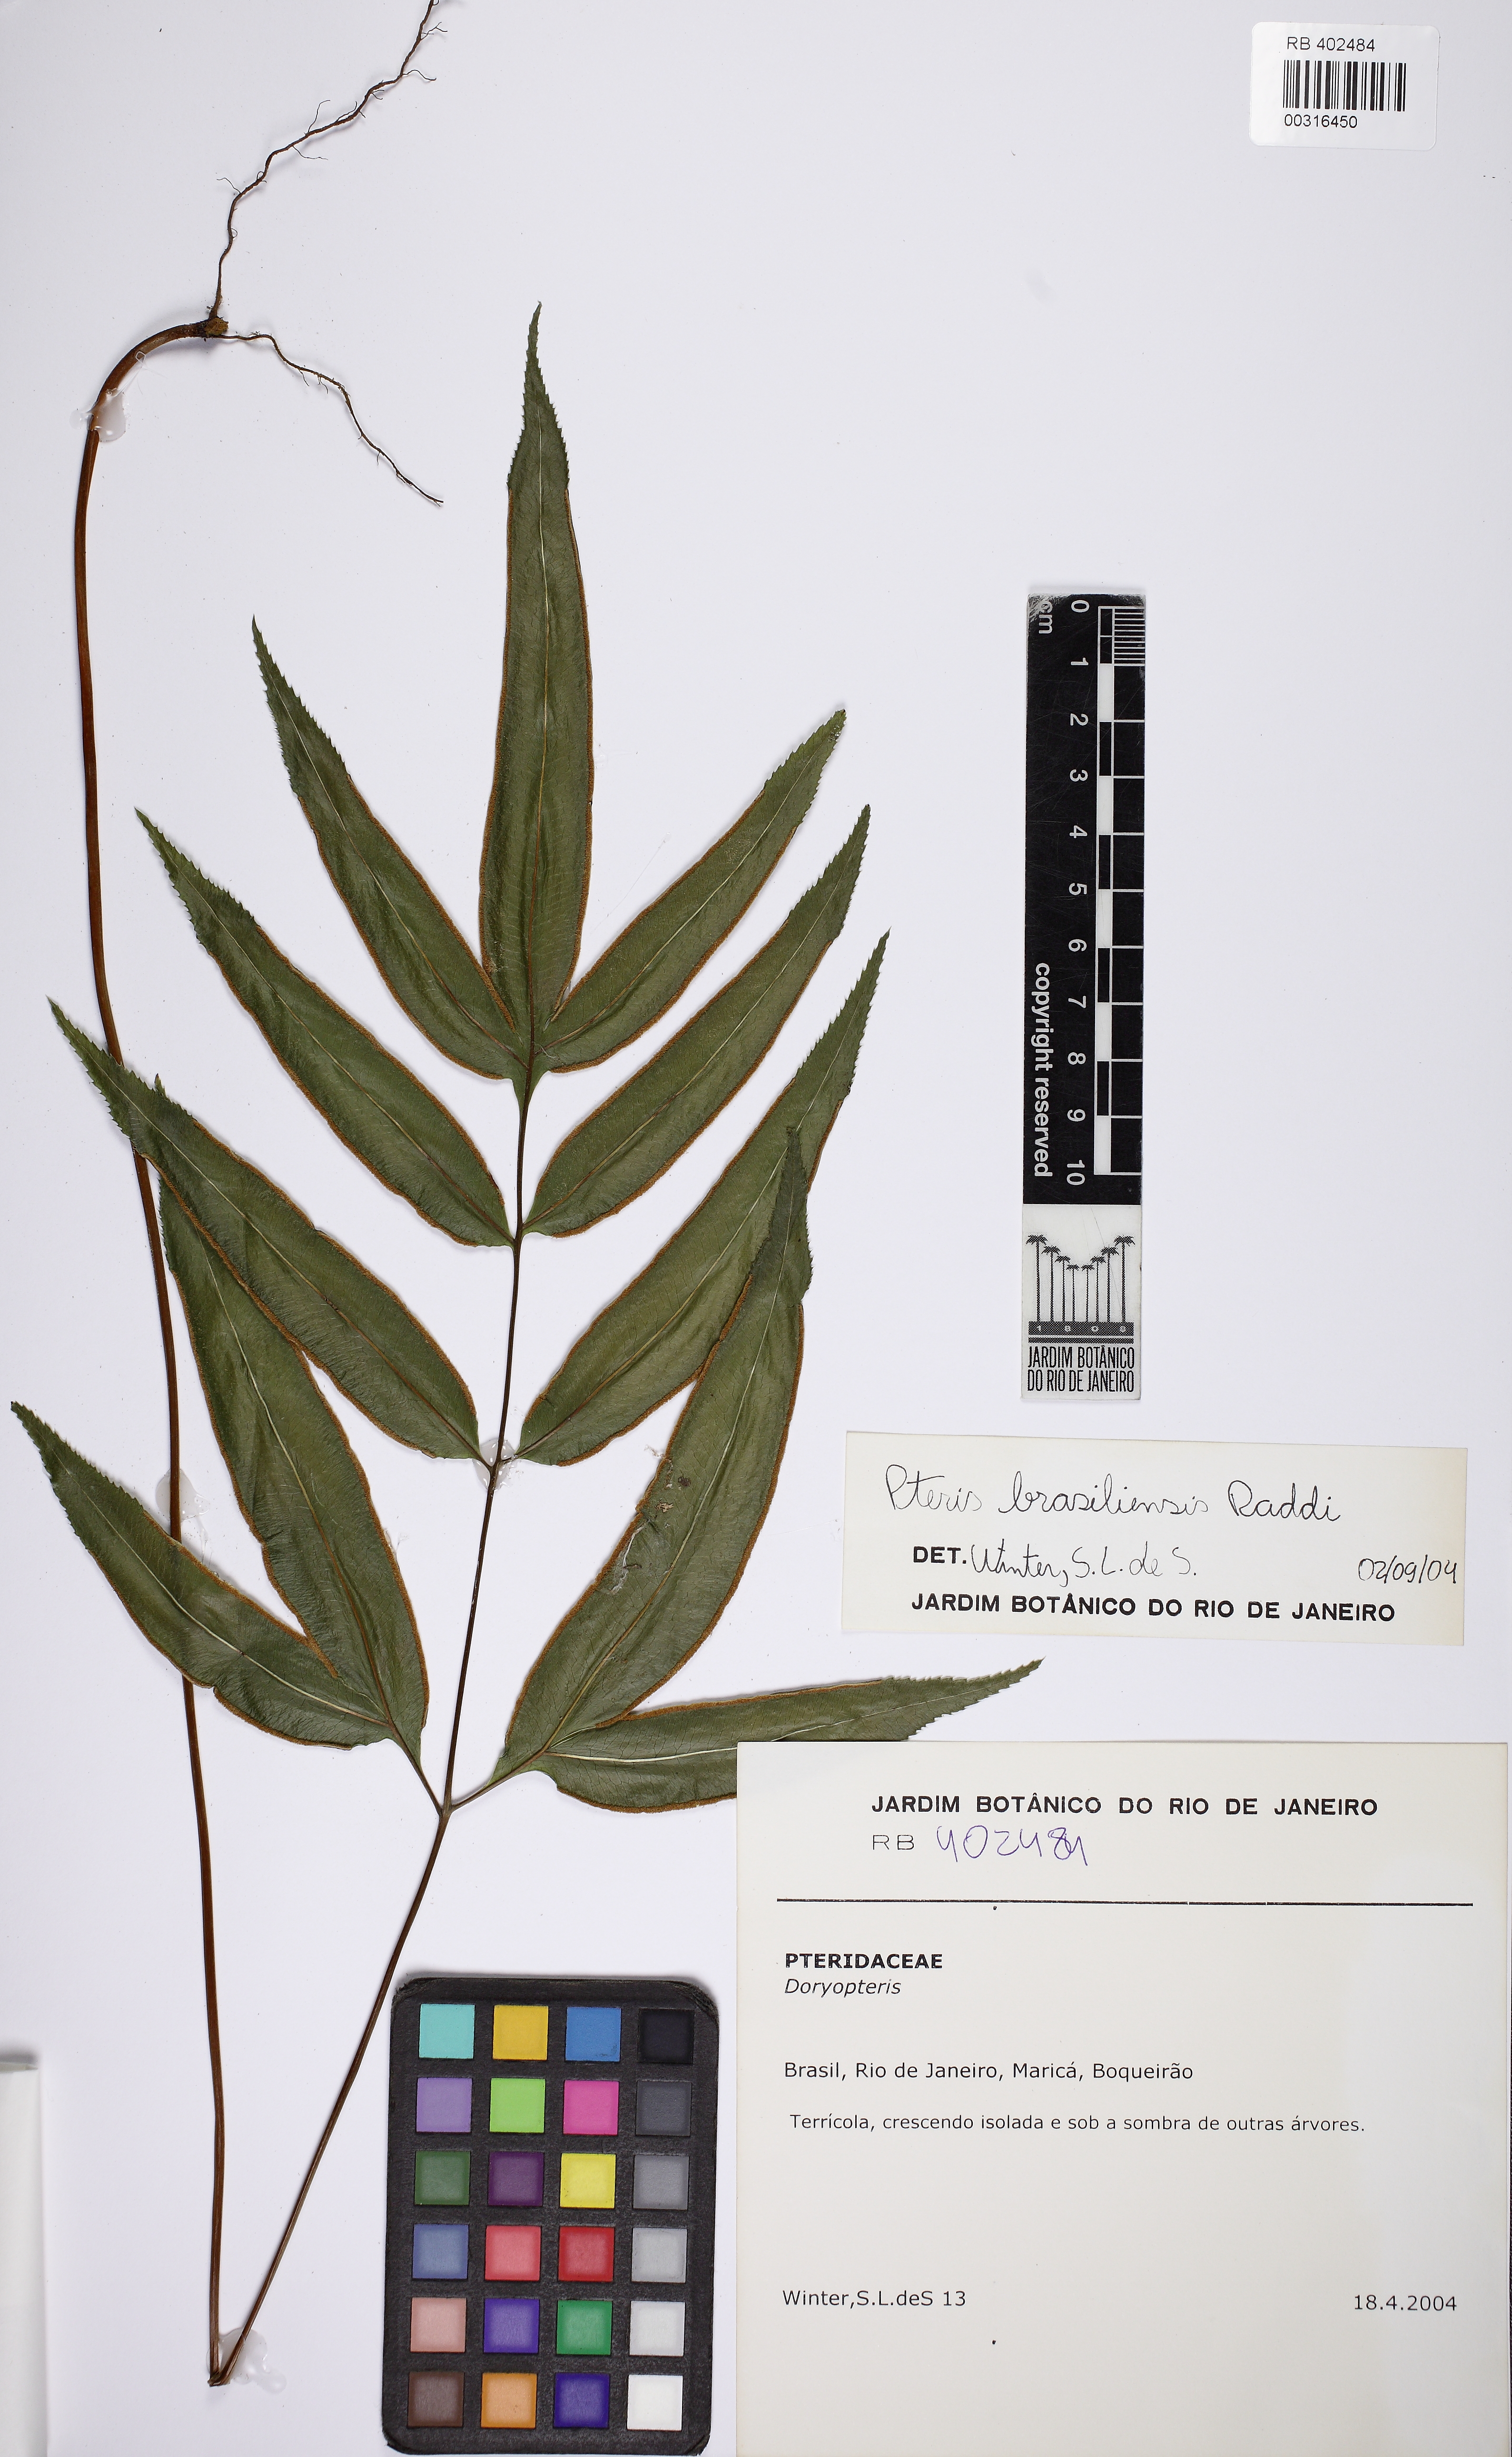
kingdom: Plantae
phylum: Tracheophyta
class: Polypodiopsida
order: Polypodiales
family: Pteridaceae
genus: Pteris
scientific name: Pteris brasiliensis
